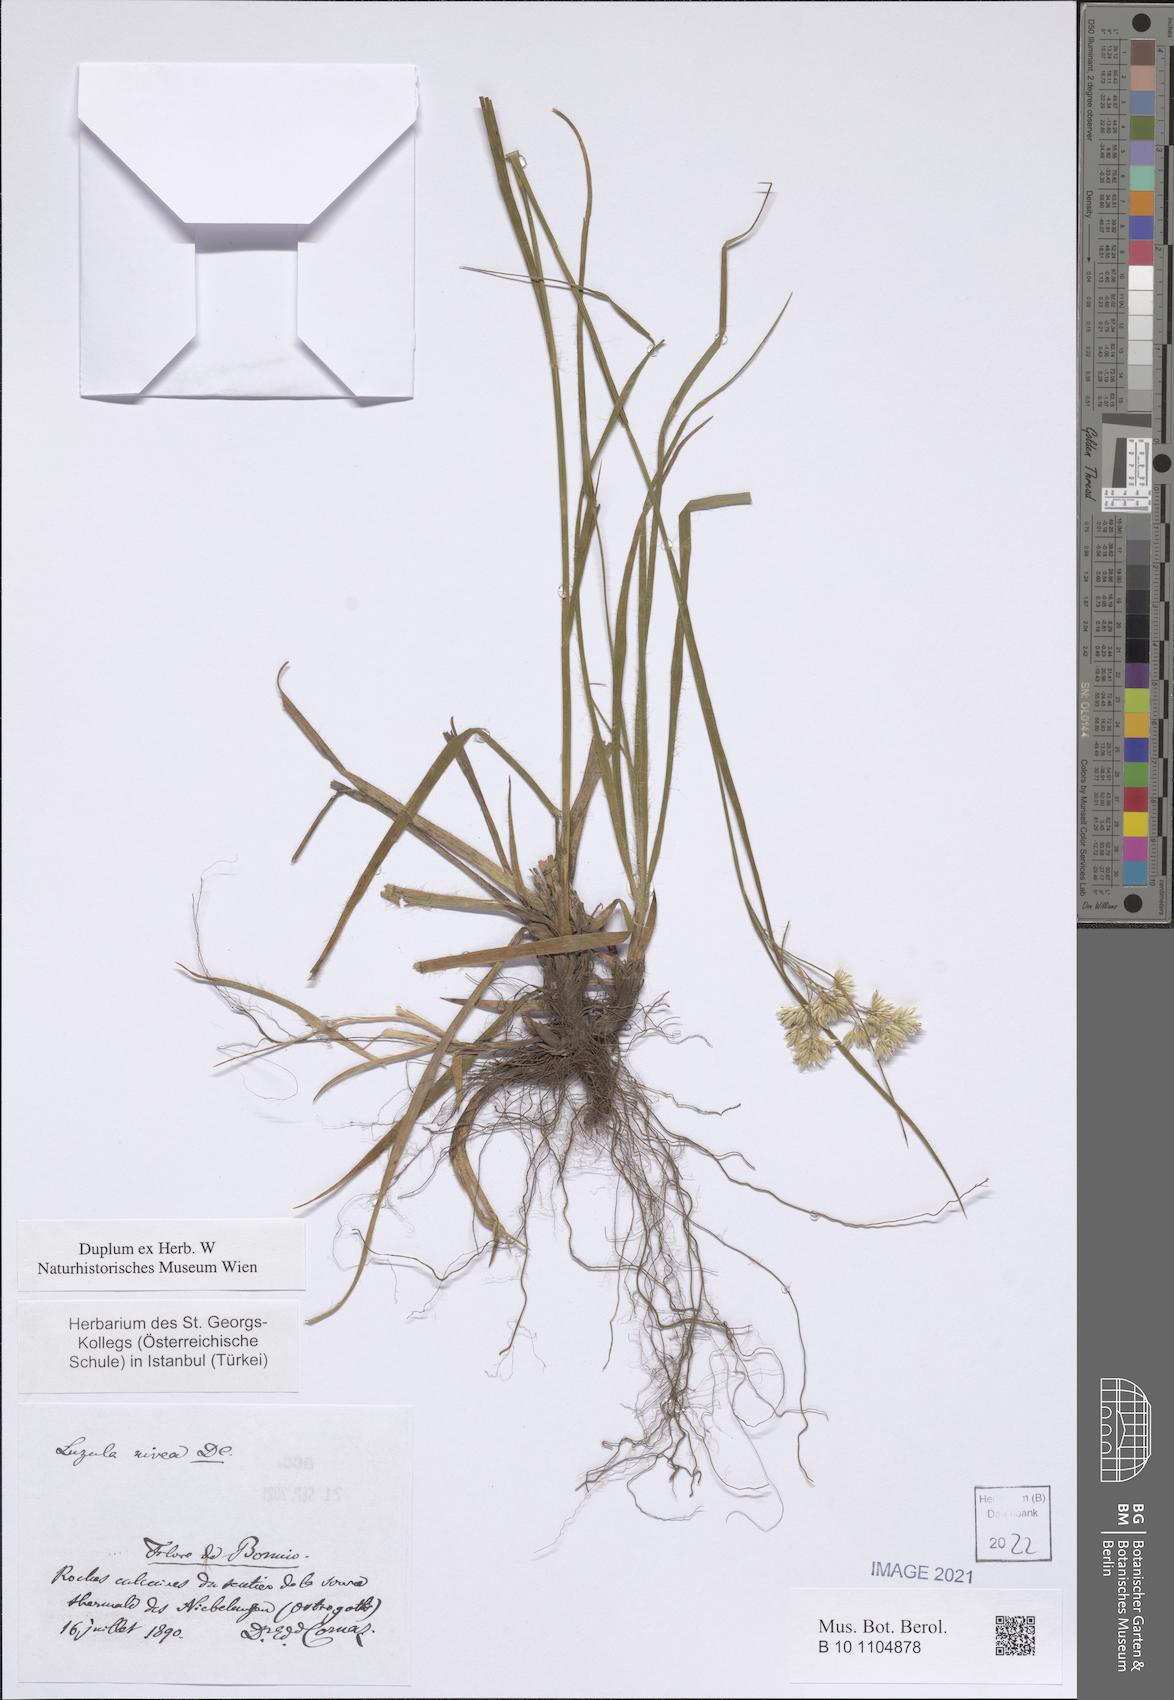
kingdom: Plantae
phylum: Tracheophyta
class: Liliopsida
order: Poales
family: Juncaceae
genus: Luzula
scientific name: Luzula nivea
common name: Snow-white wood-rush
